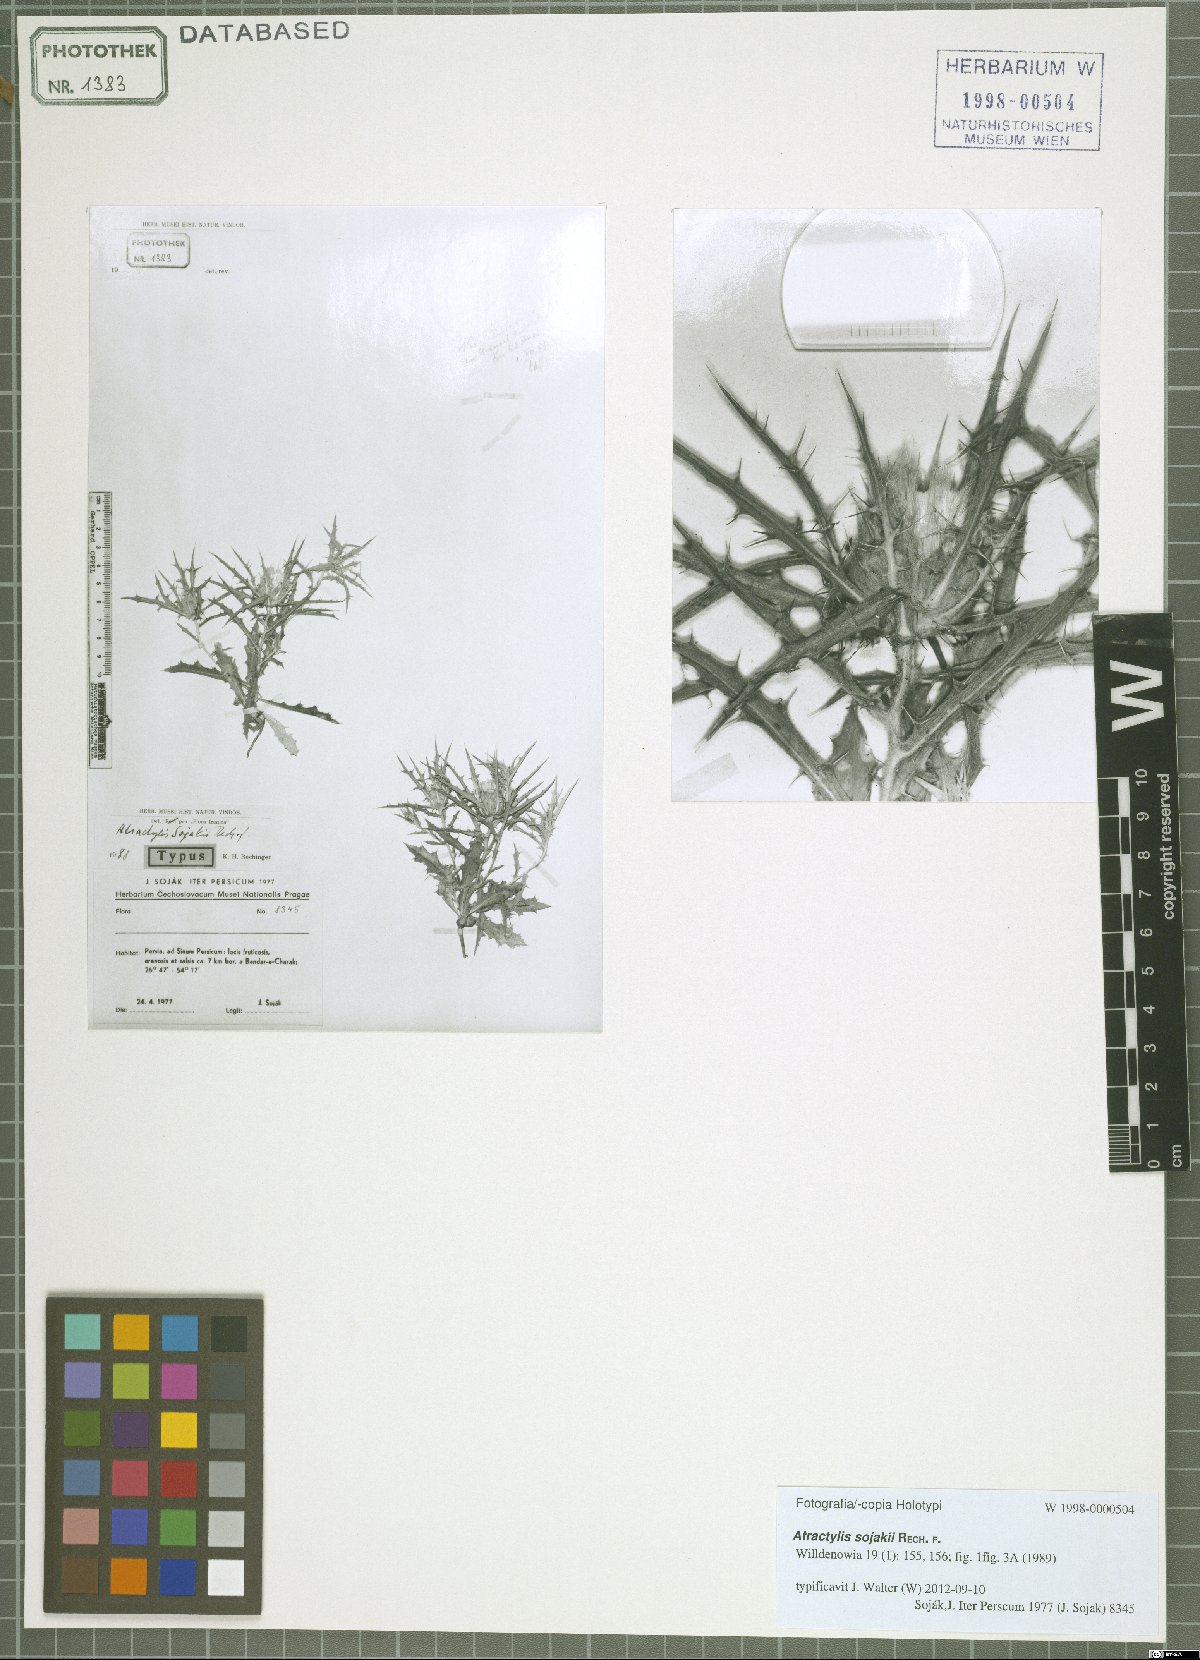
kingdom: Plantae
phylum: Tracheophyta
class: Magnoliopsida
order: Asterales
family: Asteraceae
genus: Atractylis
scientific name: Atractylis sojakii
